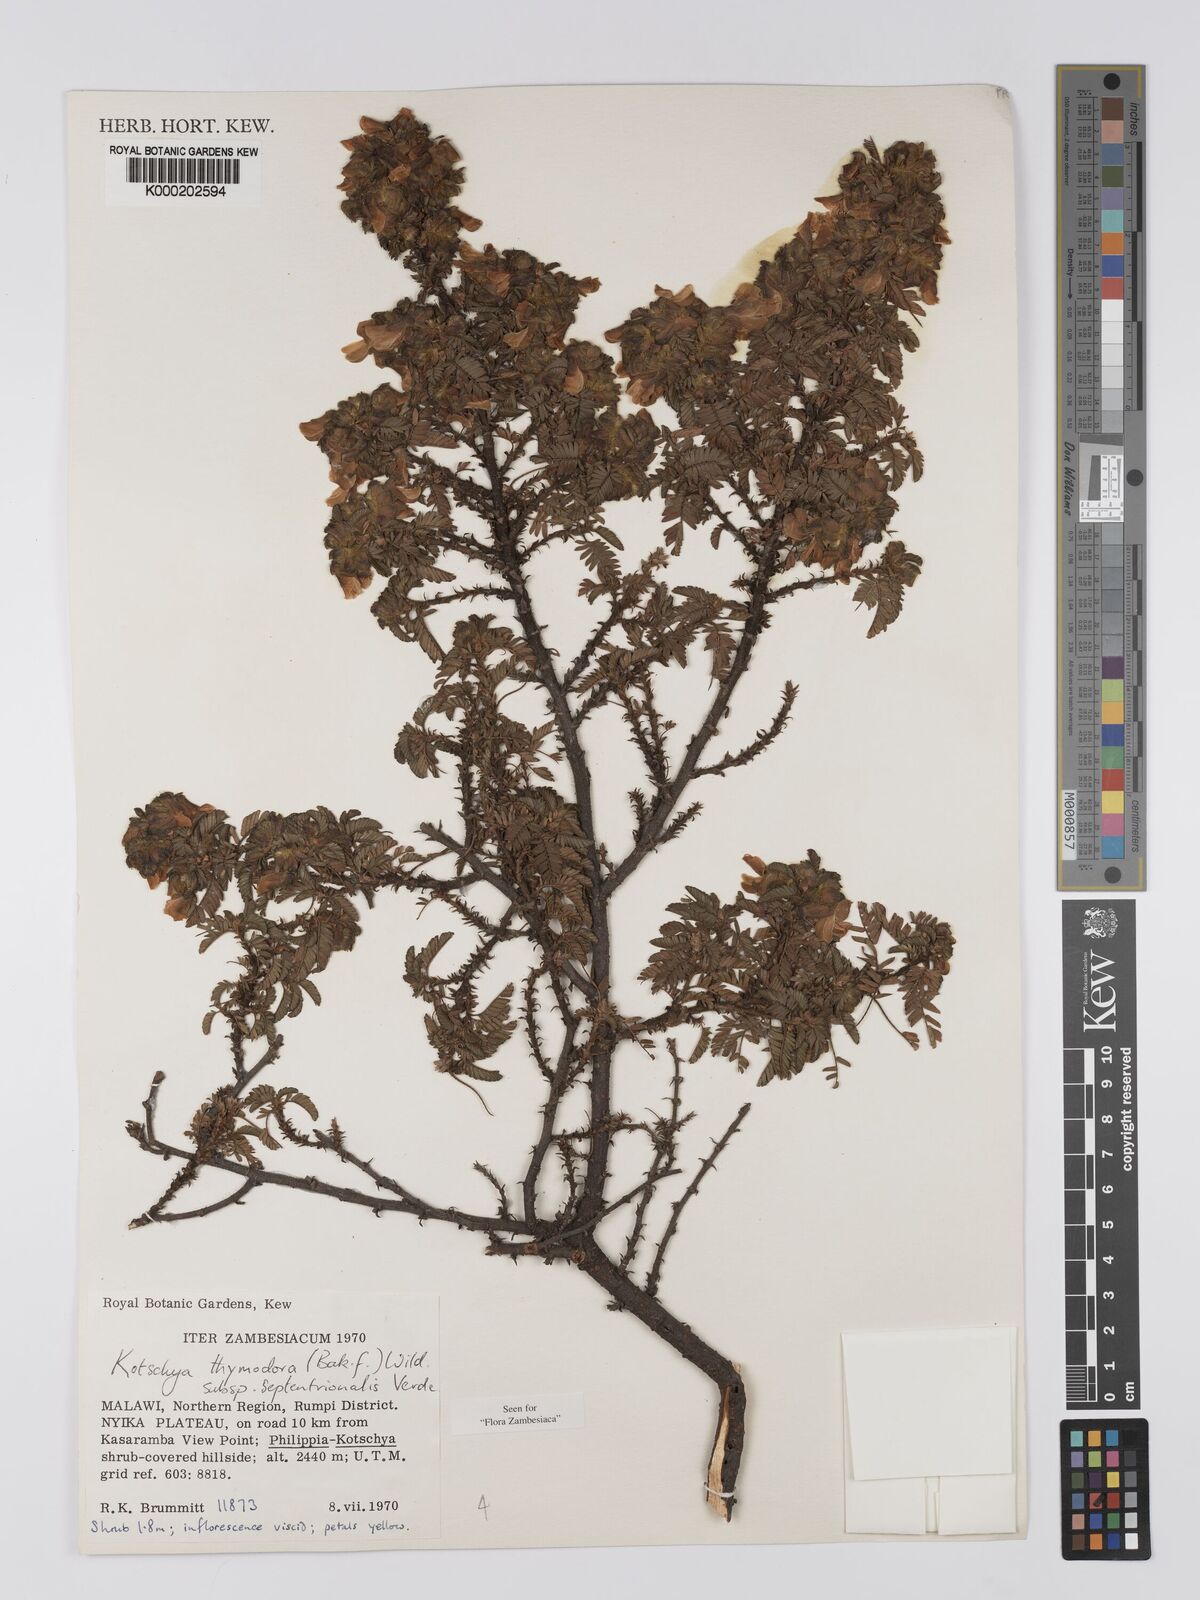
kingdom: Plantae
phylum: Tracheophyta
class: Magnoliopsida
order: Fabales
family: Fabaceae
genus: Kotschya
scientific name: Kotschya thymodora
